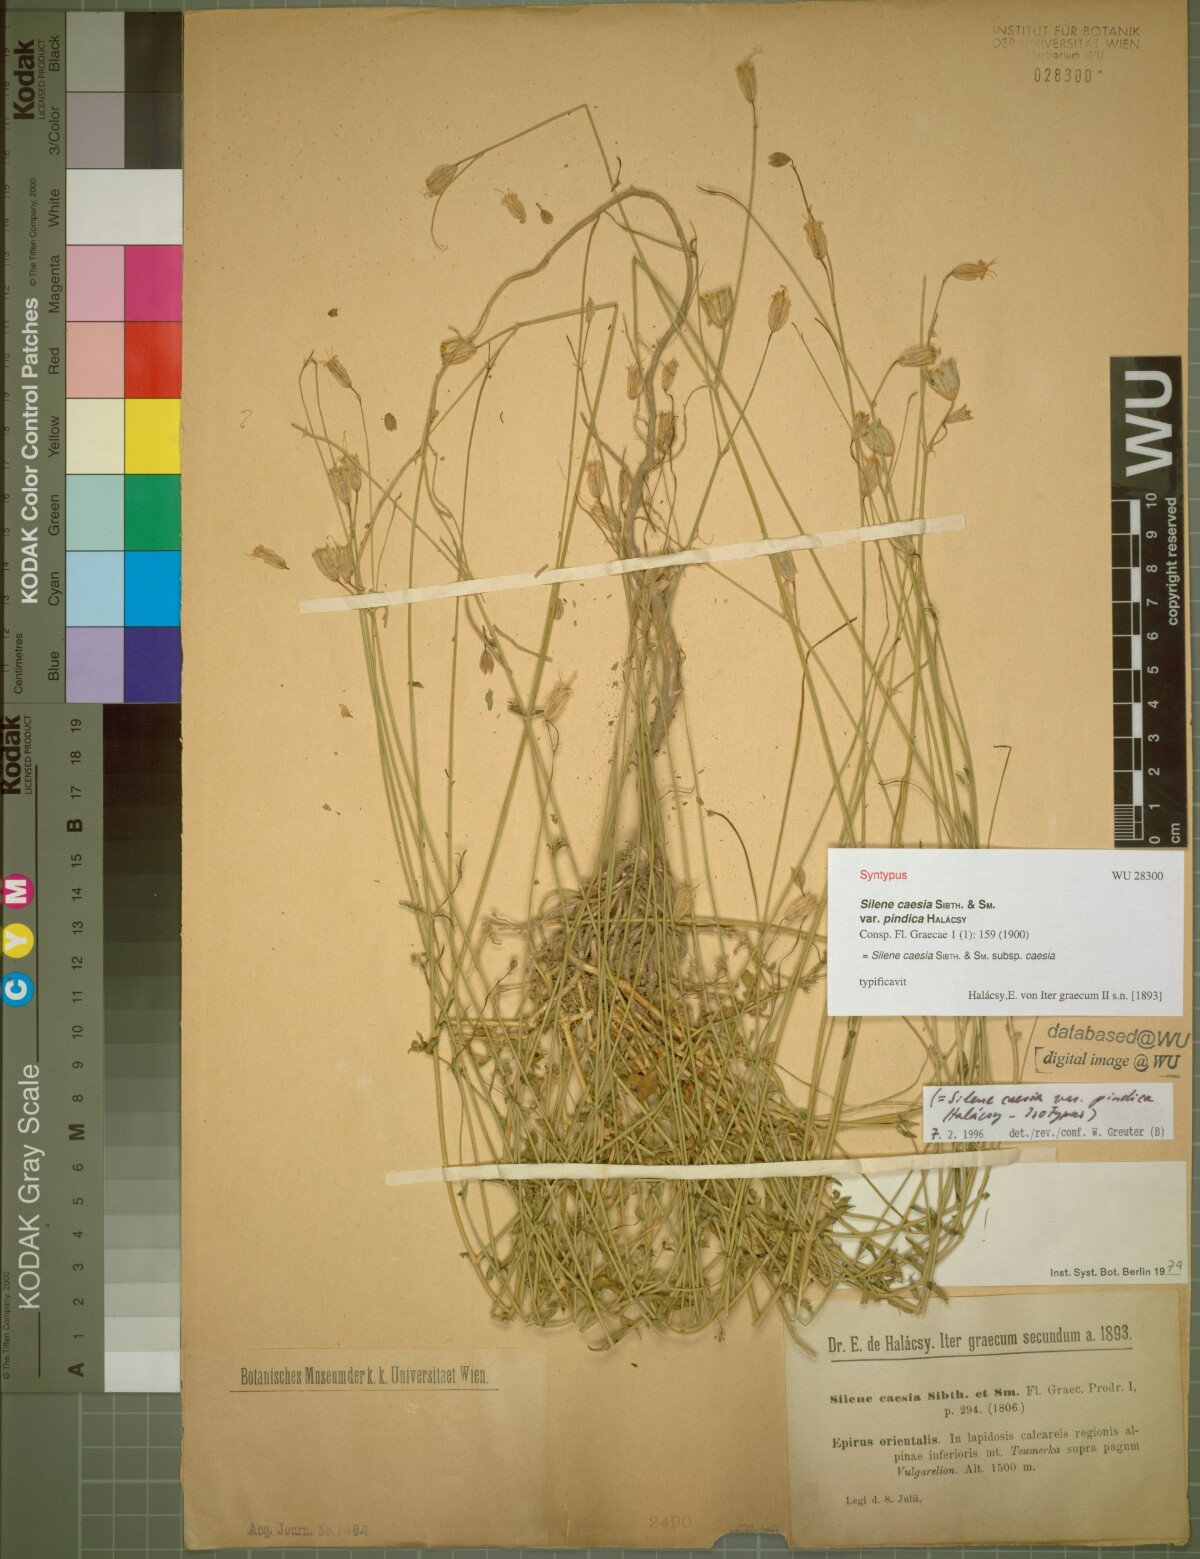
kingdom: Plantae
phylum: Tracheophyta
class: Magnoliopsida
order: Caryophyllales
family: Caryophyllaceae
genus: Silene
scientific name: Silene caesia
